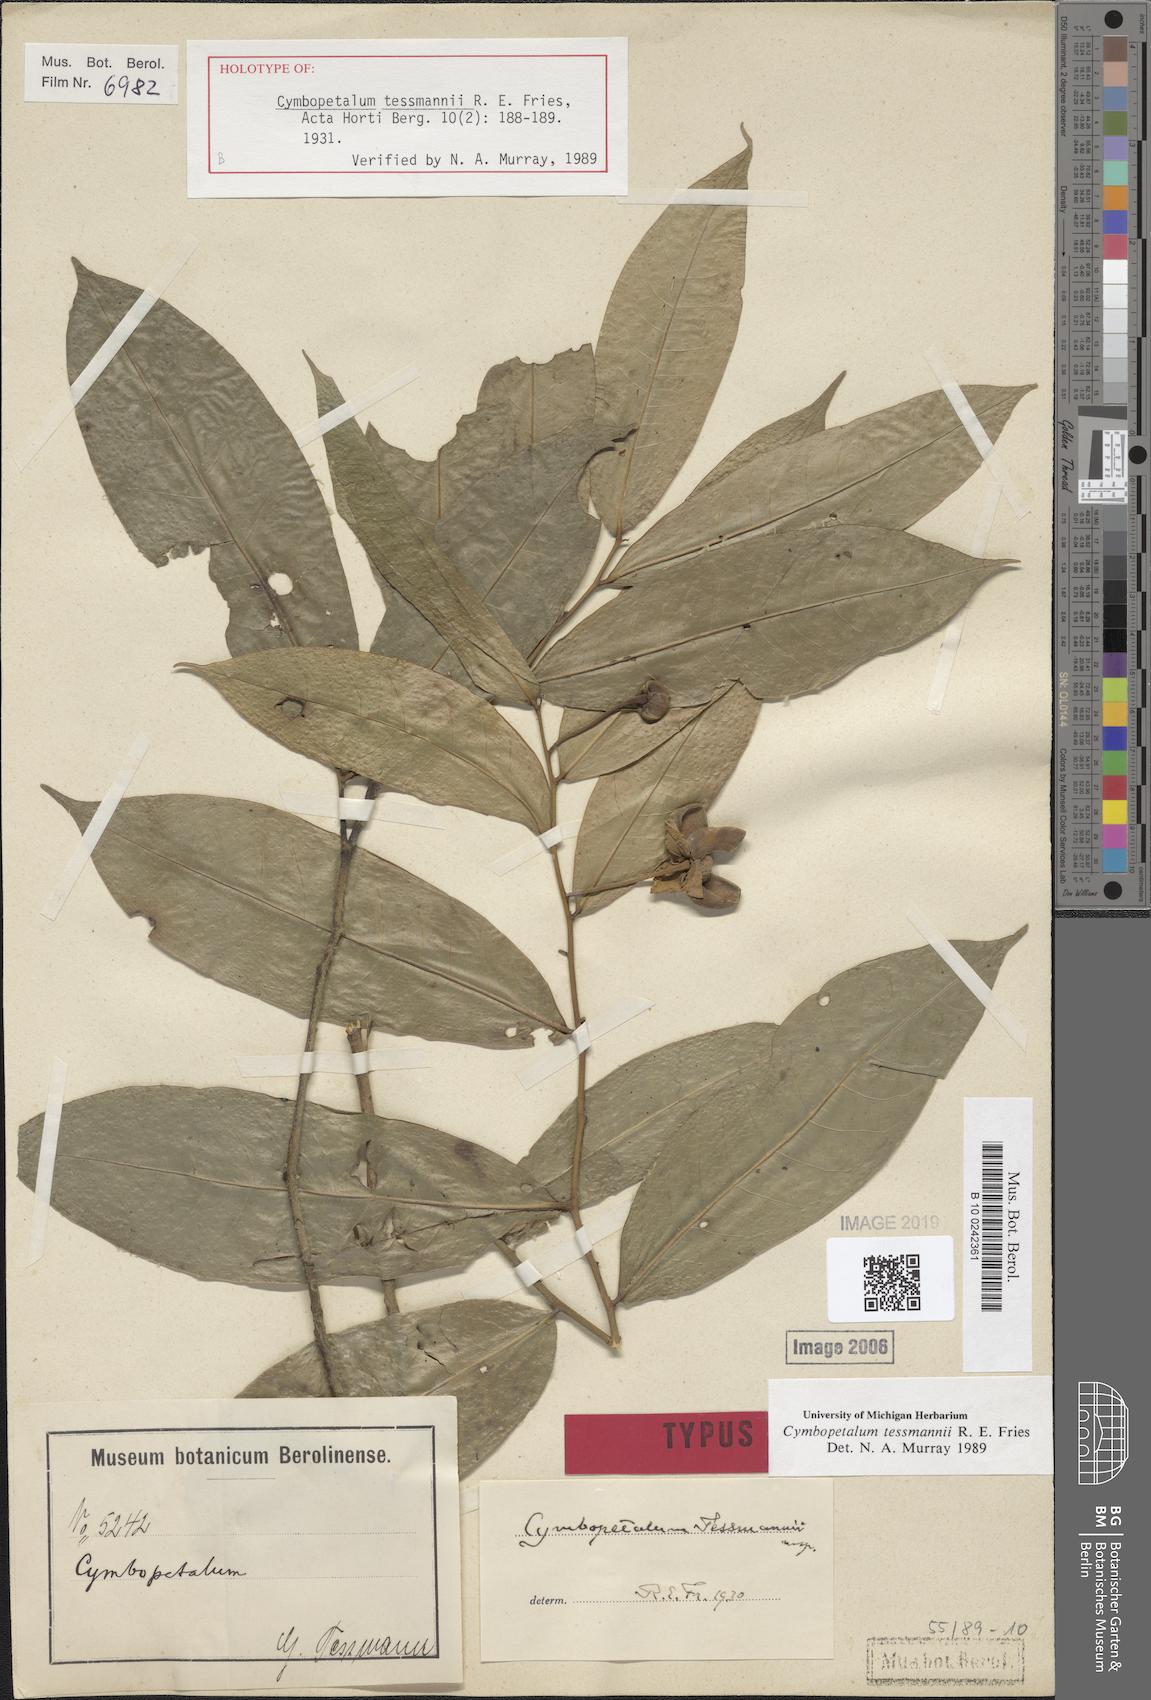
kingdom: Plantae
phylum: Tracheophyta
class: Magnoliopsida
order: Magnoliales
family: Annonaceae
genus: Cymbopetalum
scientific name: Cymbopetalum tessmannii
